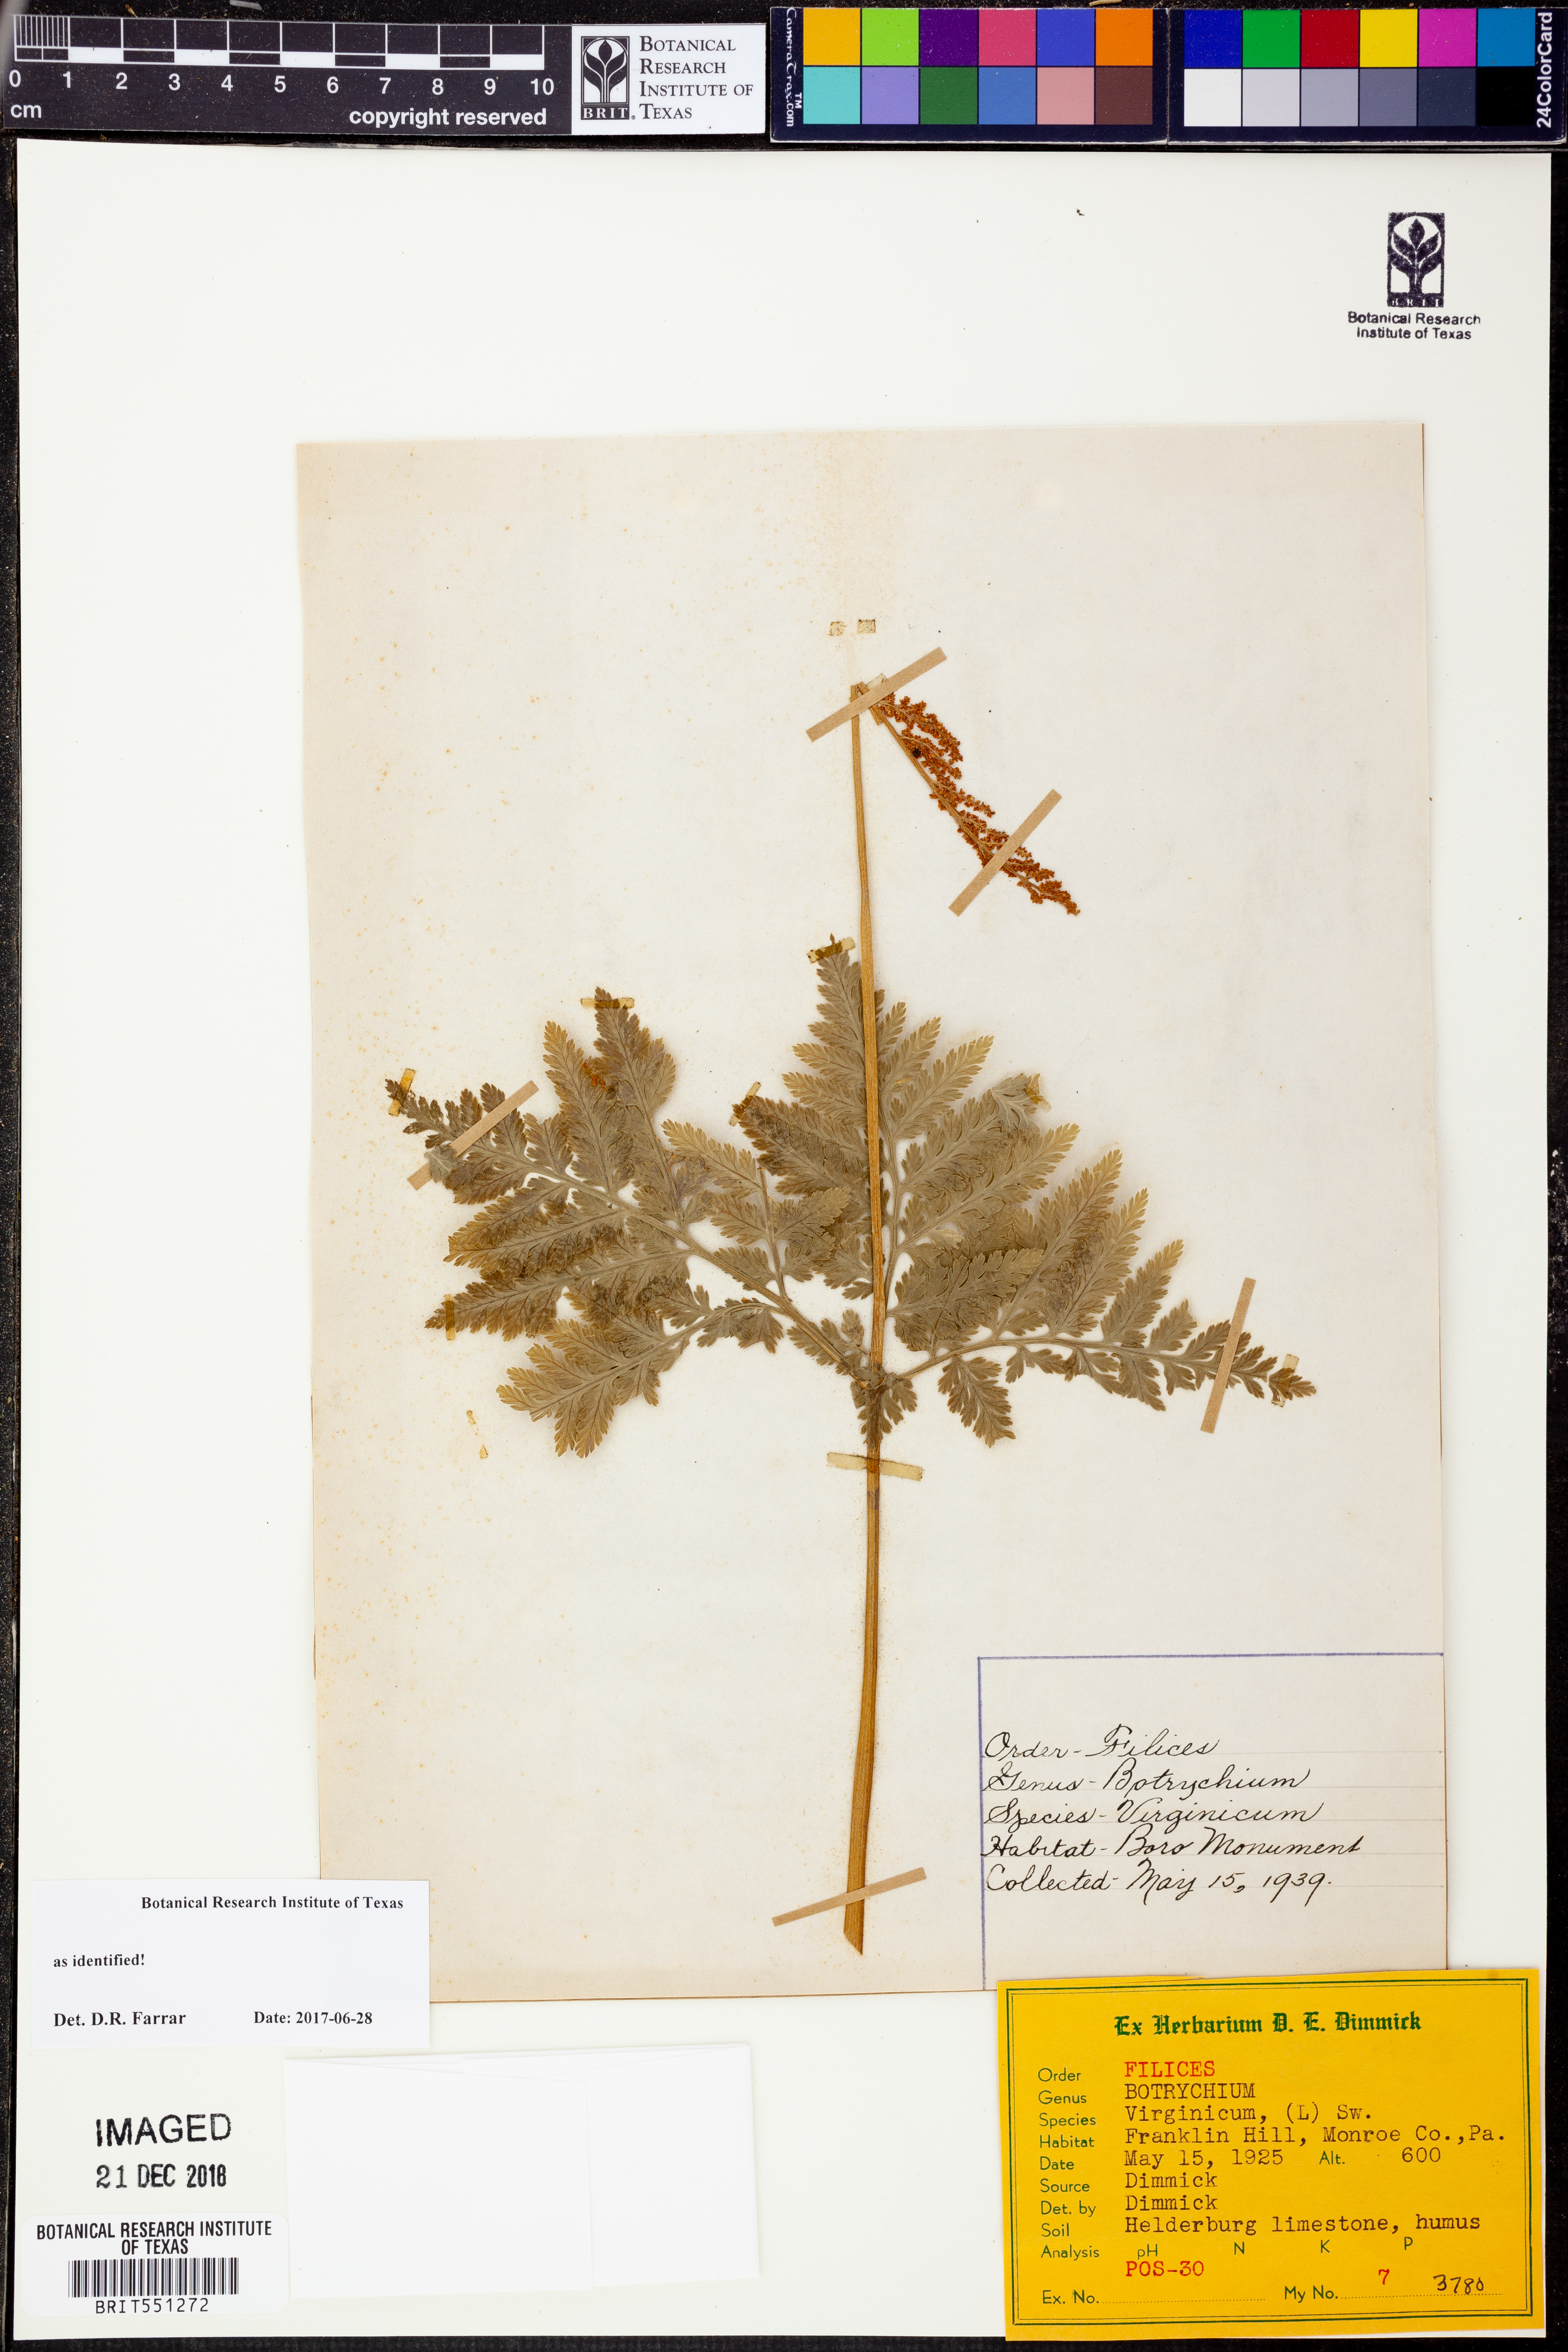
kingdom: Plantae
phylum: Tracheophyta
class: Polypodiopsida
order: Ophioglossales
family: Ophioglossaceae
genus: Botrypus
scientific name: Botrypus virginianus
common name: Common grapefern
